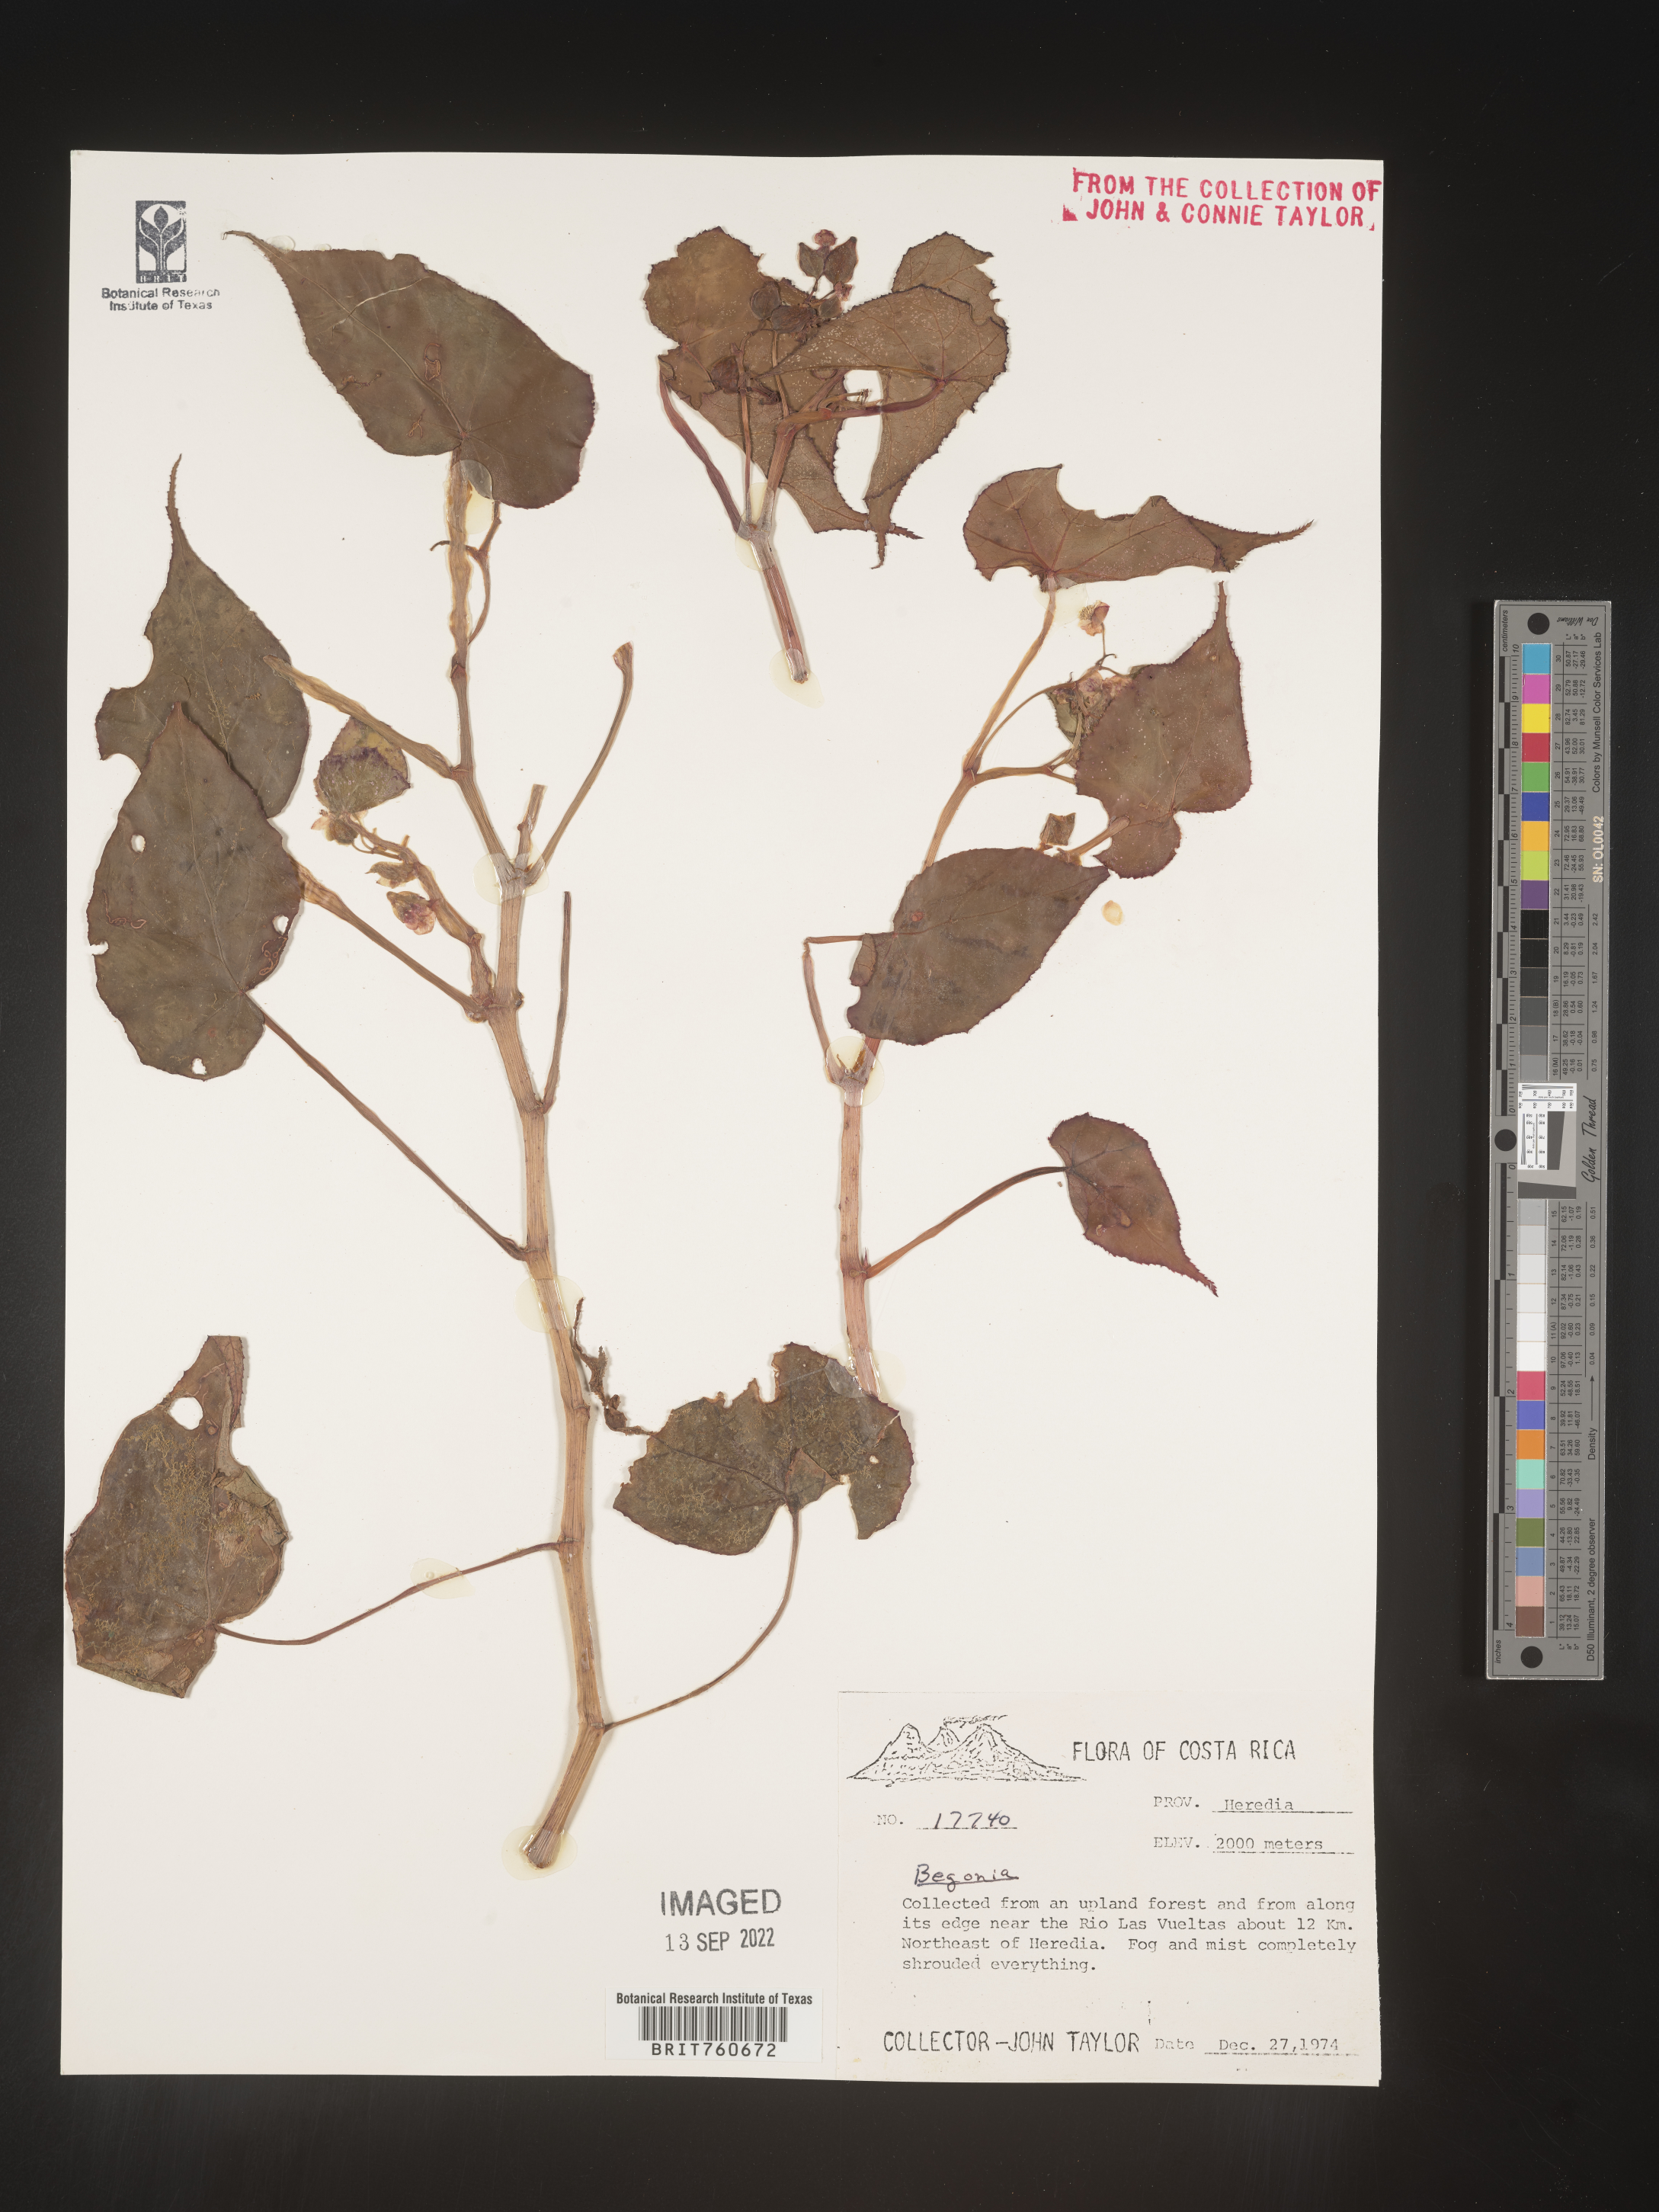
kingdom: Plantae
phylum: Tracheophyta
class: Magnoliopsida
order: Cucurbitales
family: Begoniaceae
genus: Begonia
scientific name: Begonia
